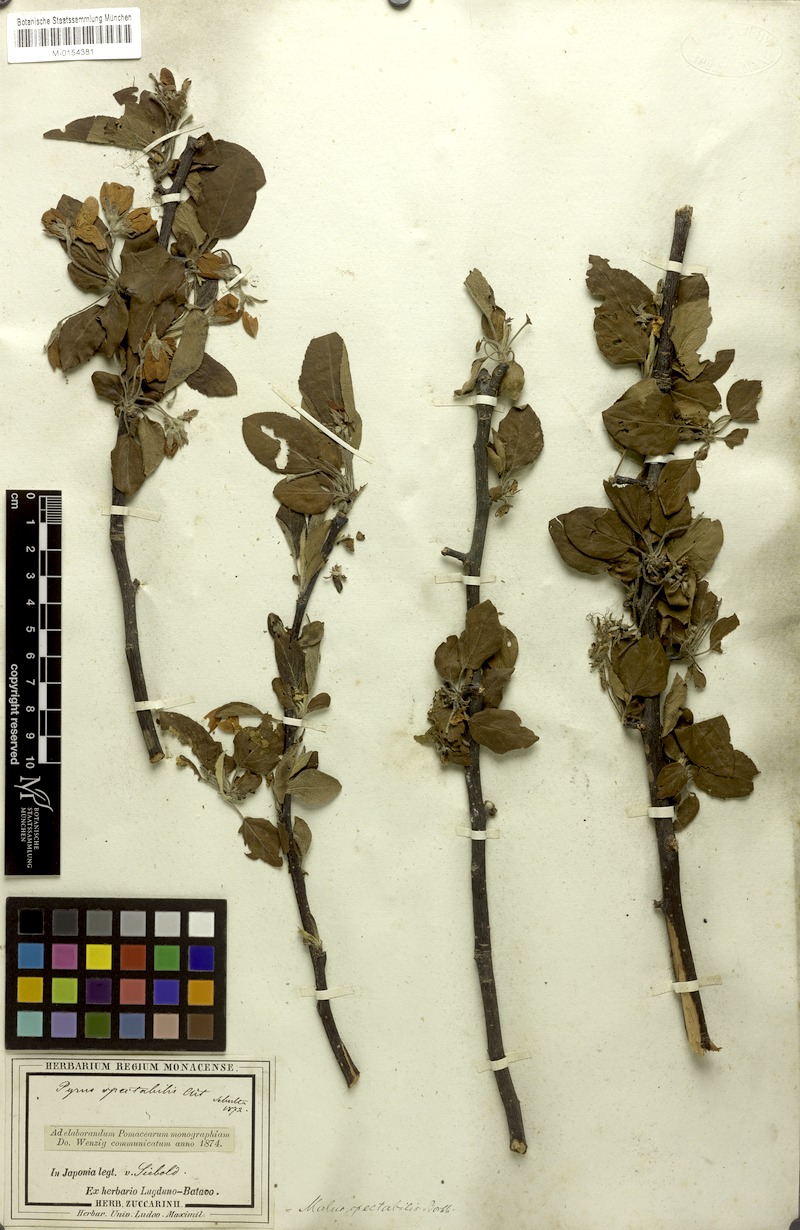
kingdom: Plantae
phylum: Tracheophyta
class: Magnoliopsida
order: Rosales
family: Rosaceae
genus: Malus
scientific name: Malus spectabilis
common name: Asiatic apple
